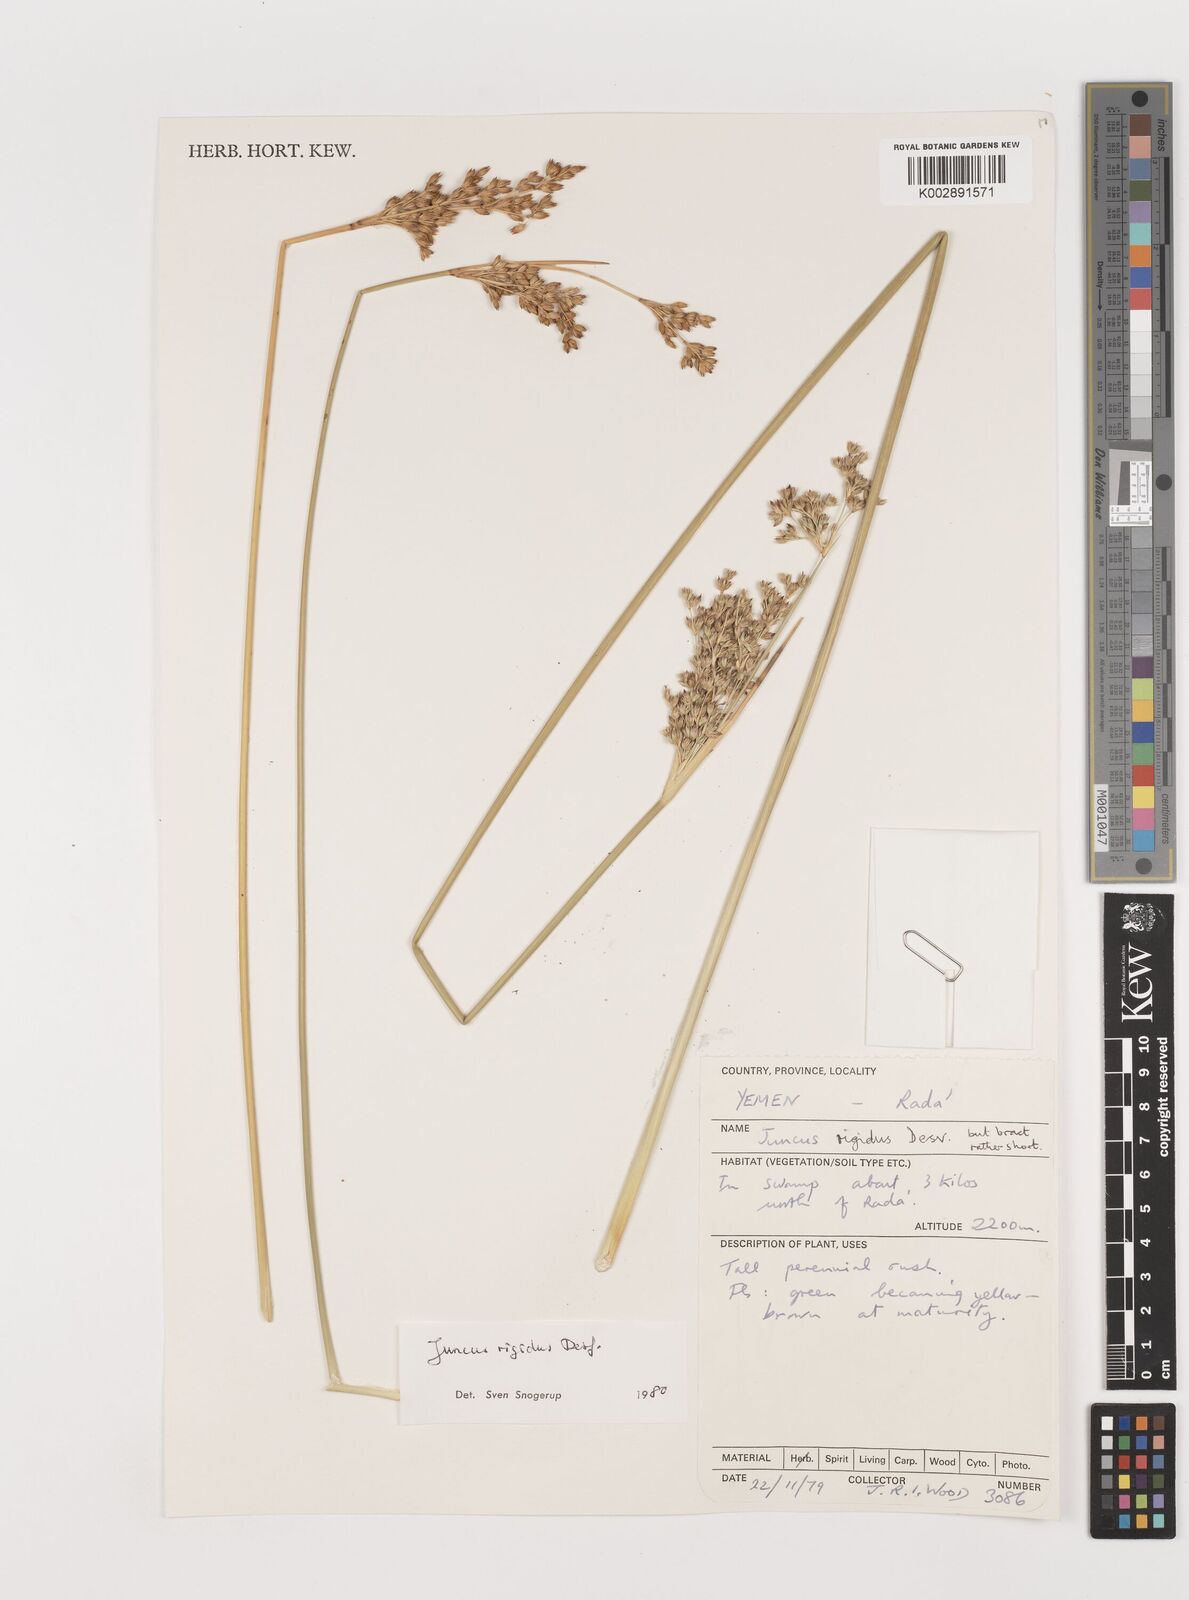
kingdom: Plantae
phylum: Tracheophyta
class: Liliopsida
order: Poales
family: Juncaceae
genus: Juncus
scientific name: Juncus rigidus
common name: Hard sea rush
